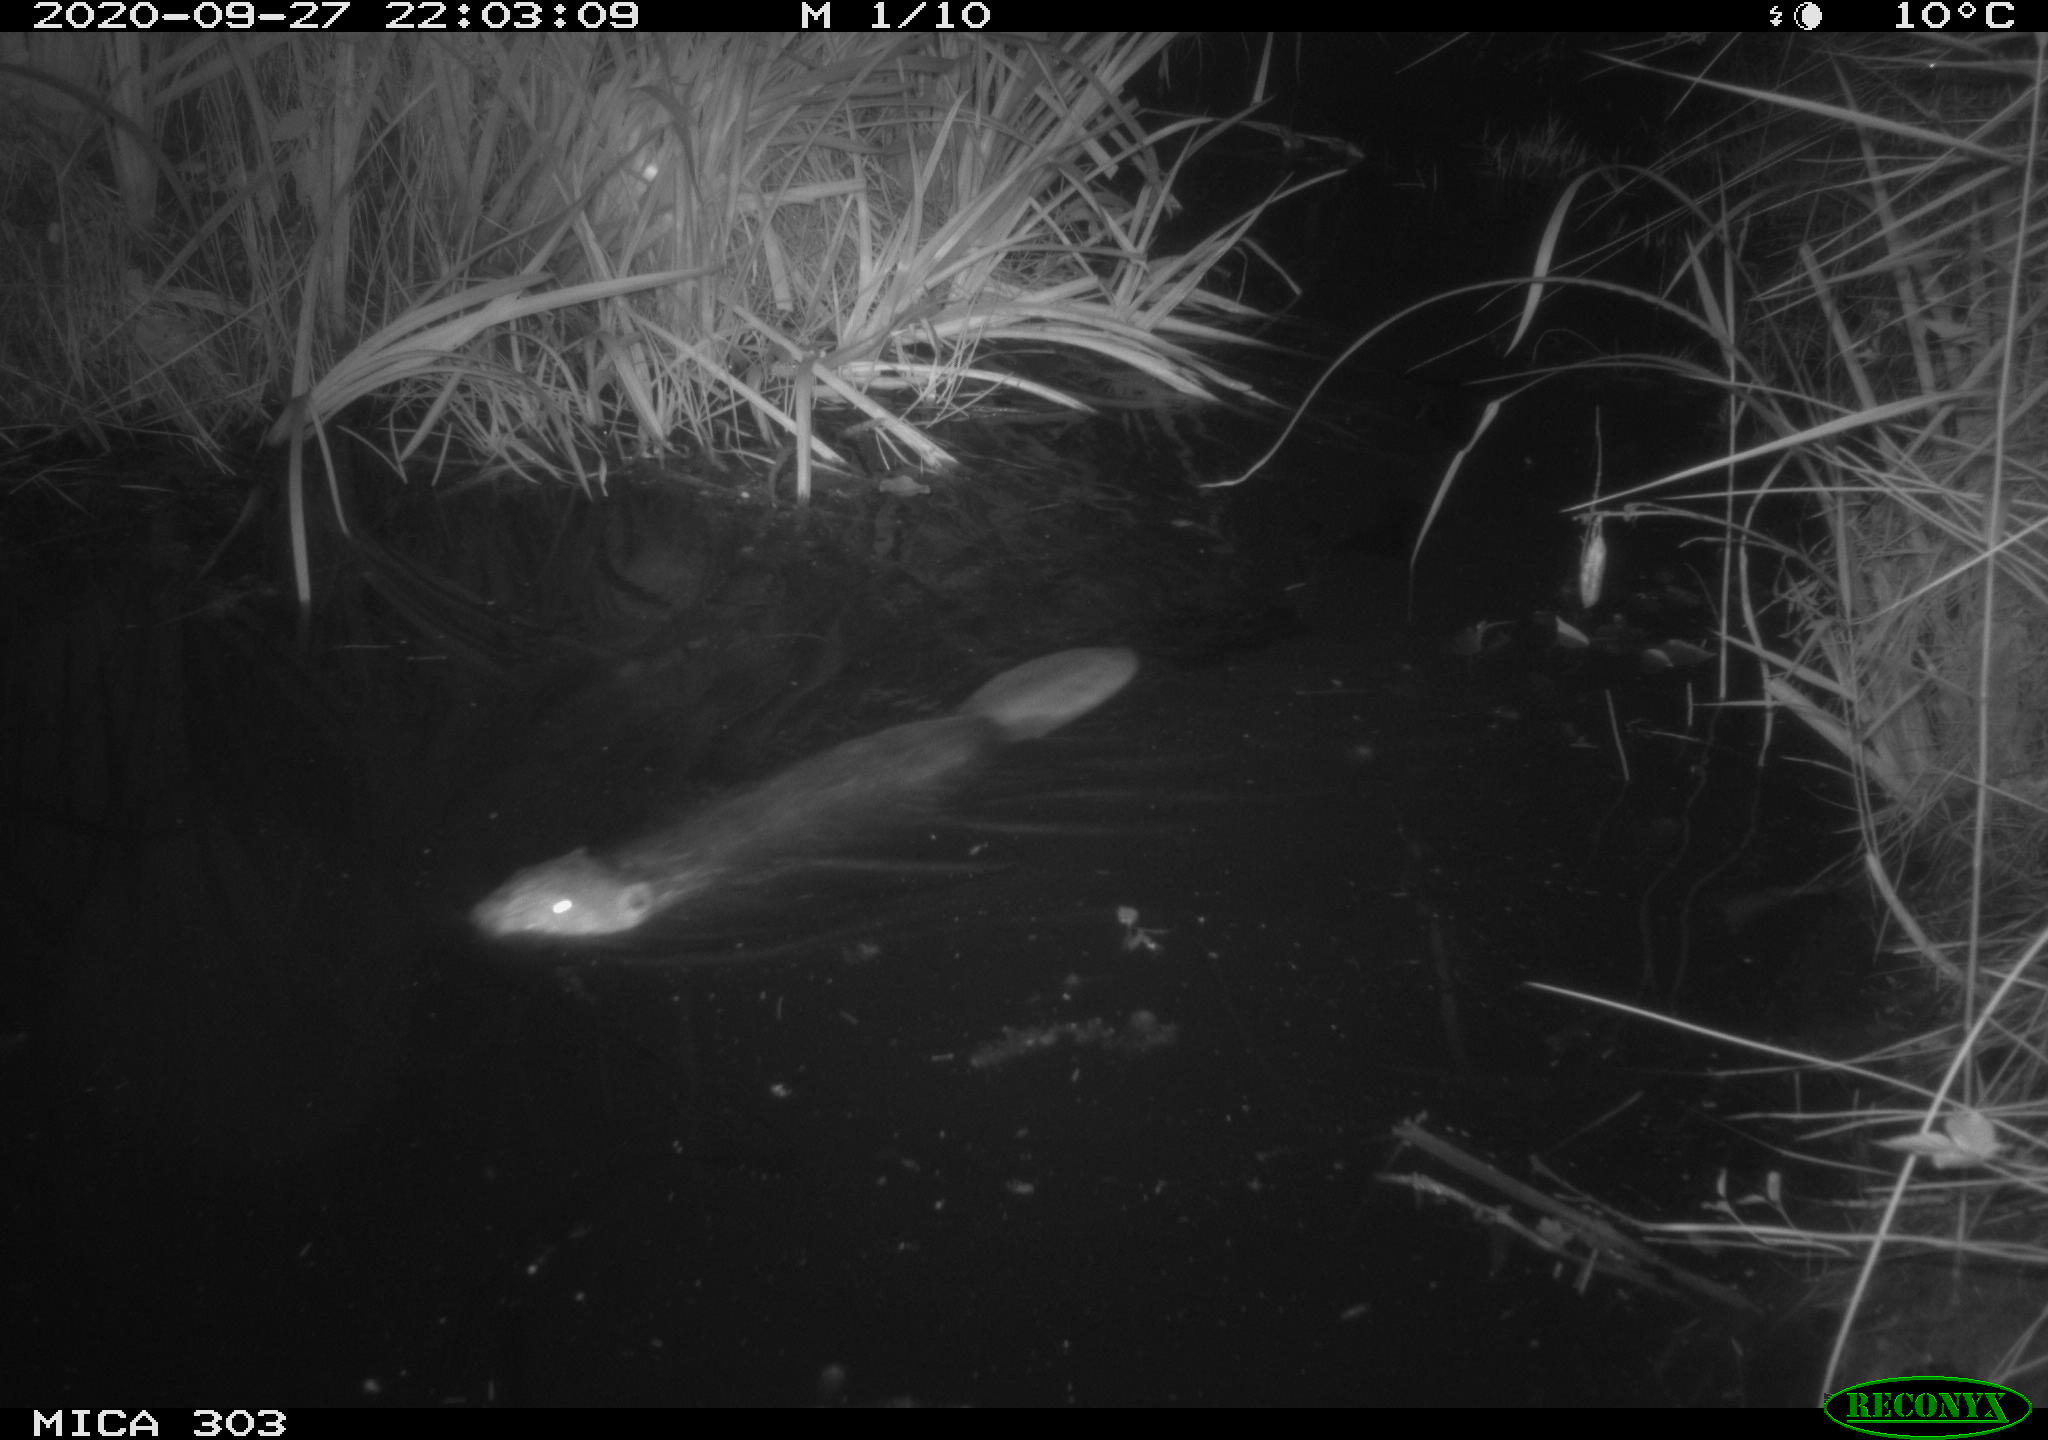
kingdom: Animalia
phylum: Chordata
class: Mammalia
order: Rodentia
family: Castoridae
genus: Castor
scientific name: Castor fiber
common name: Eurasian beaver
